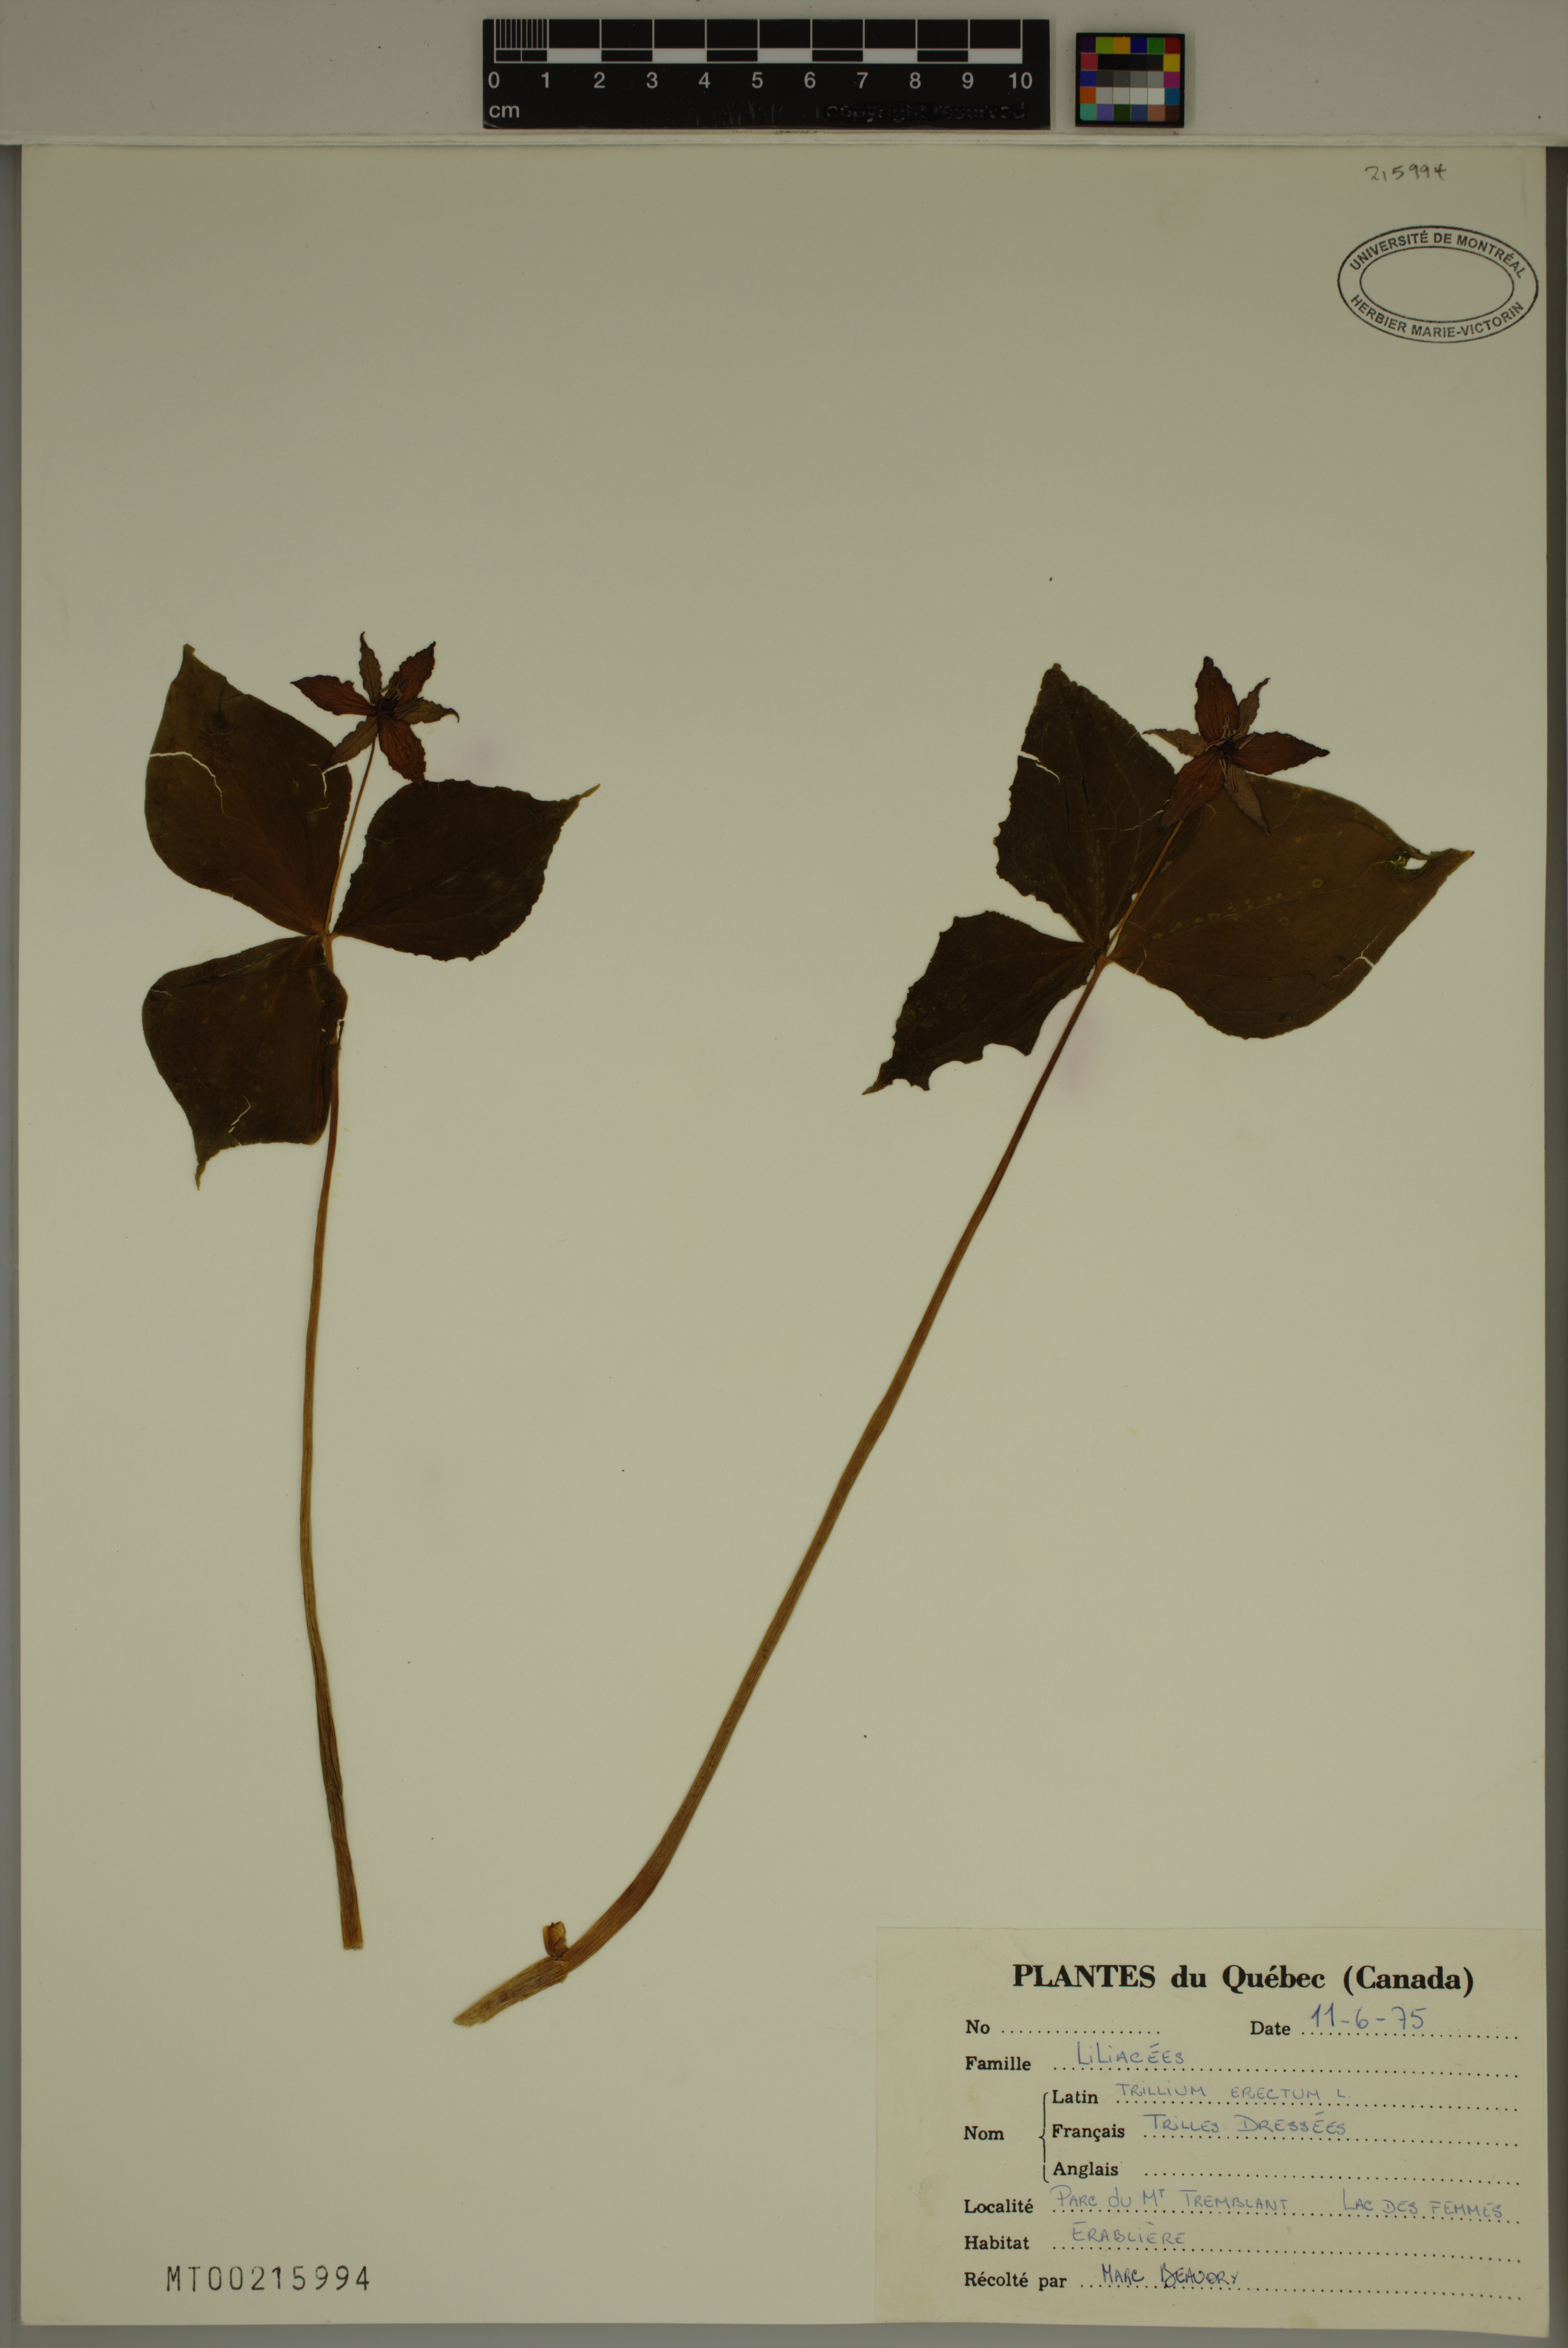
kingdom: Plantae
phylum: Tracheophyta
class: Liliopsida
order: Liliales
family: Melanthiaceae
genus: Trillium
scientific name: Trillium erectum
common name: Purple trillium
